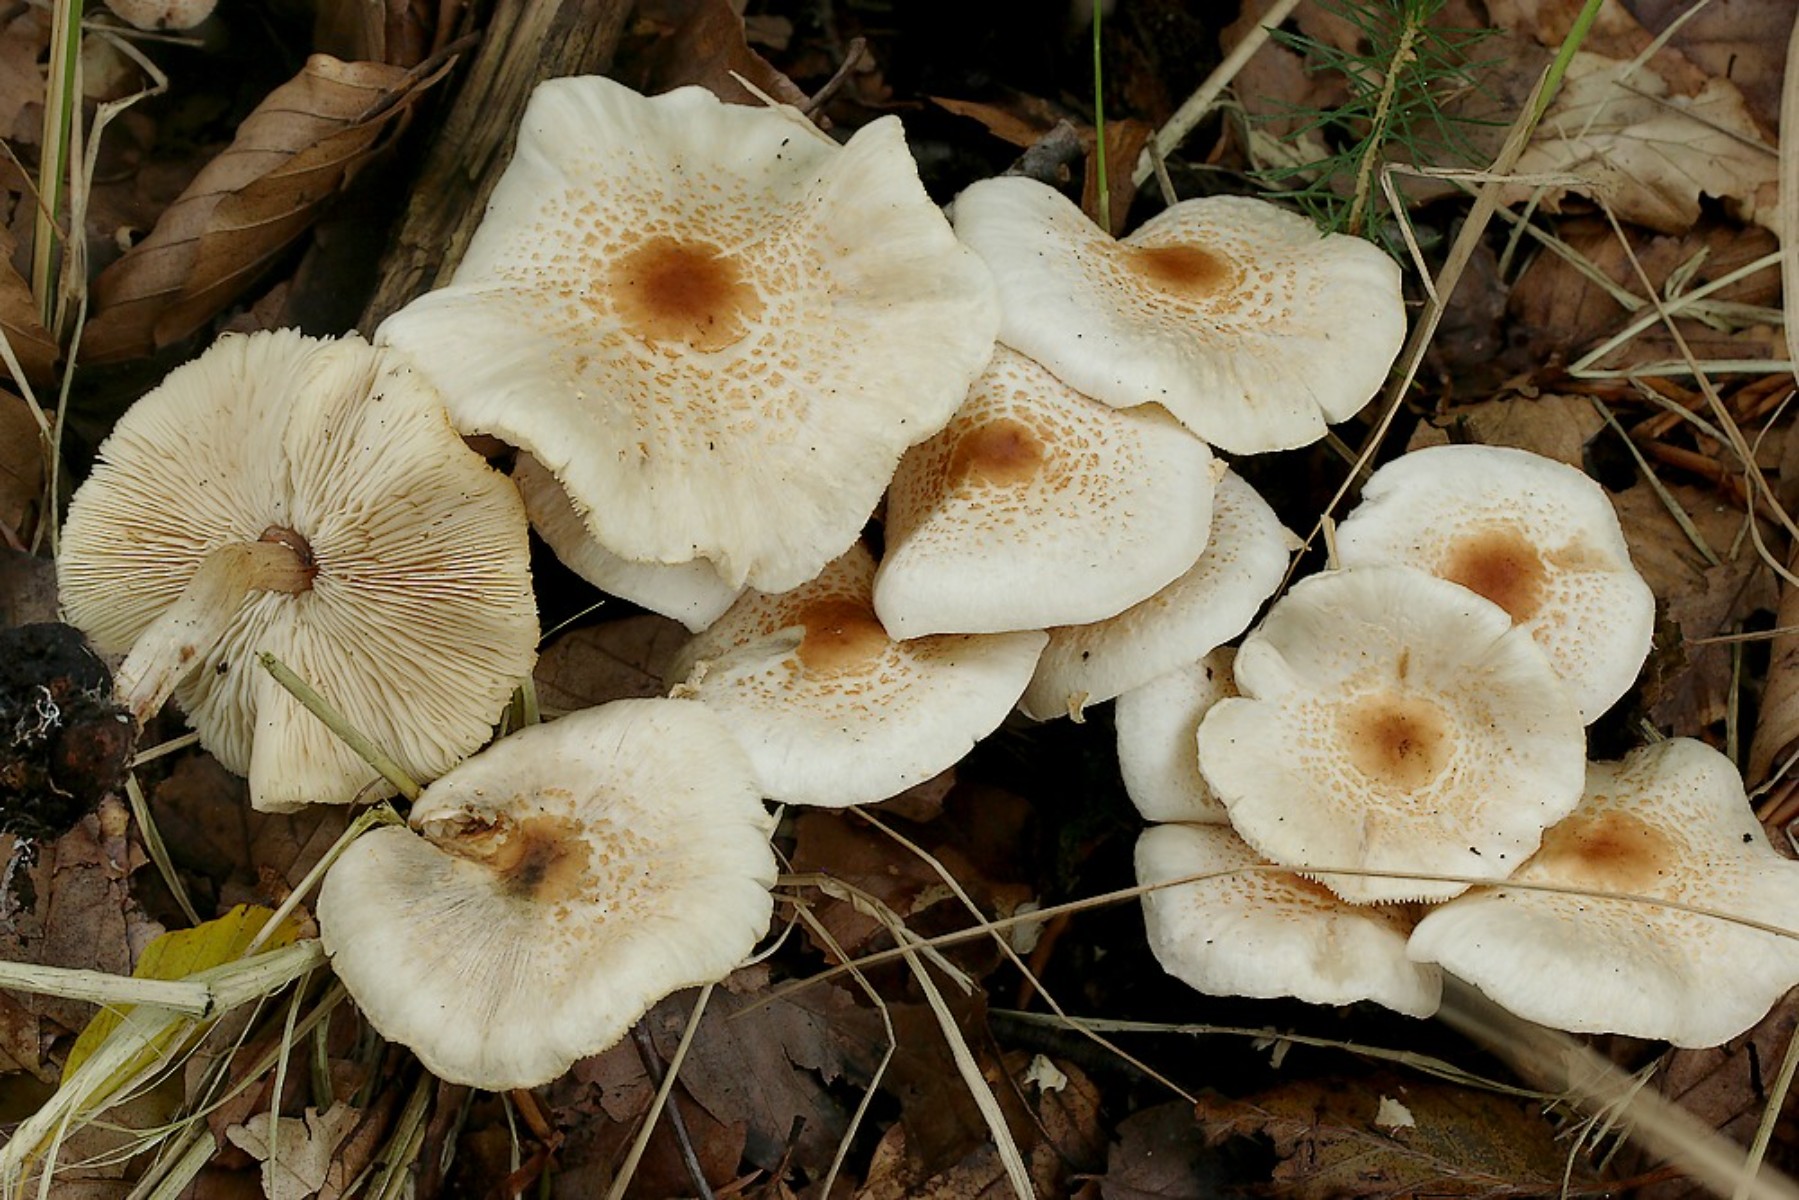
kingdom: Fungi
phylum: Basidiomycota
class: Agaricomycetes
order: Agaricales
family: Agaricaceae
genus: Lepiota
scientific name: Lepiota cristata
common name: stinkende parasolhat
